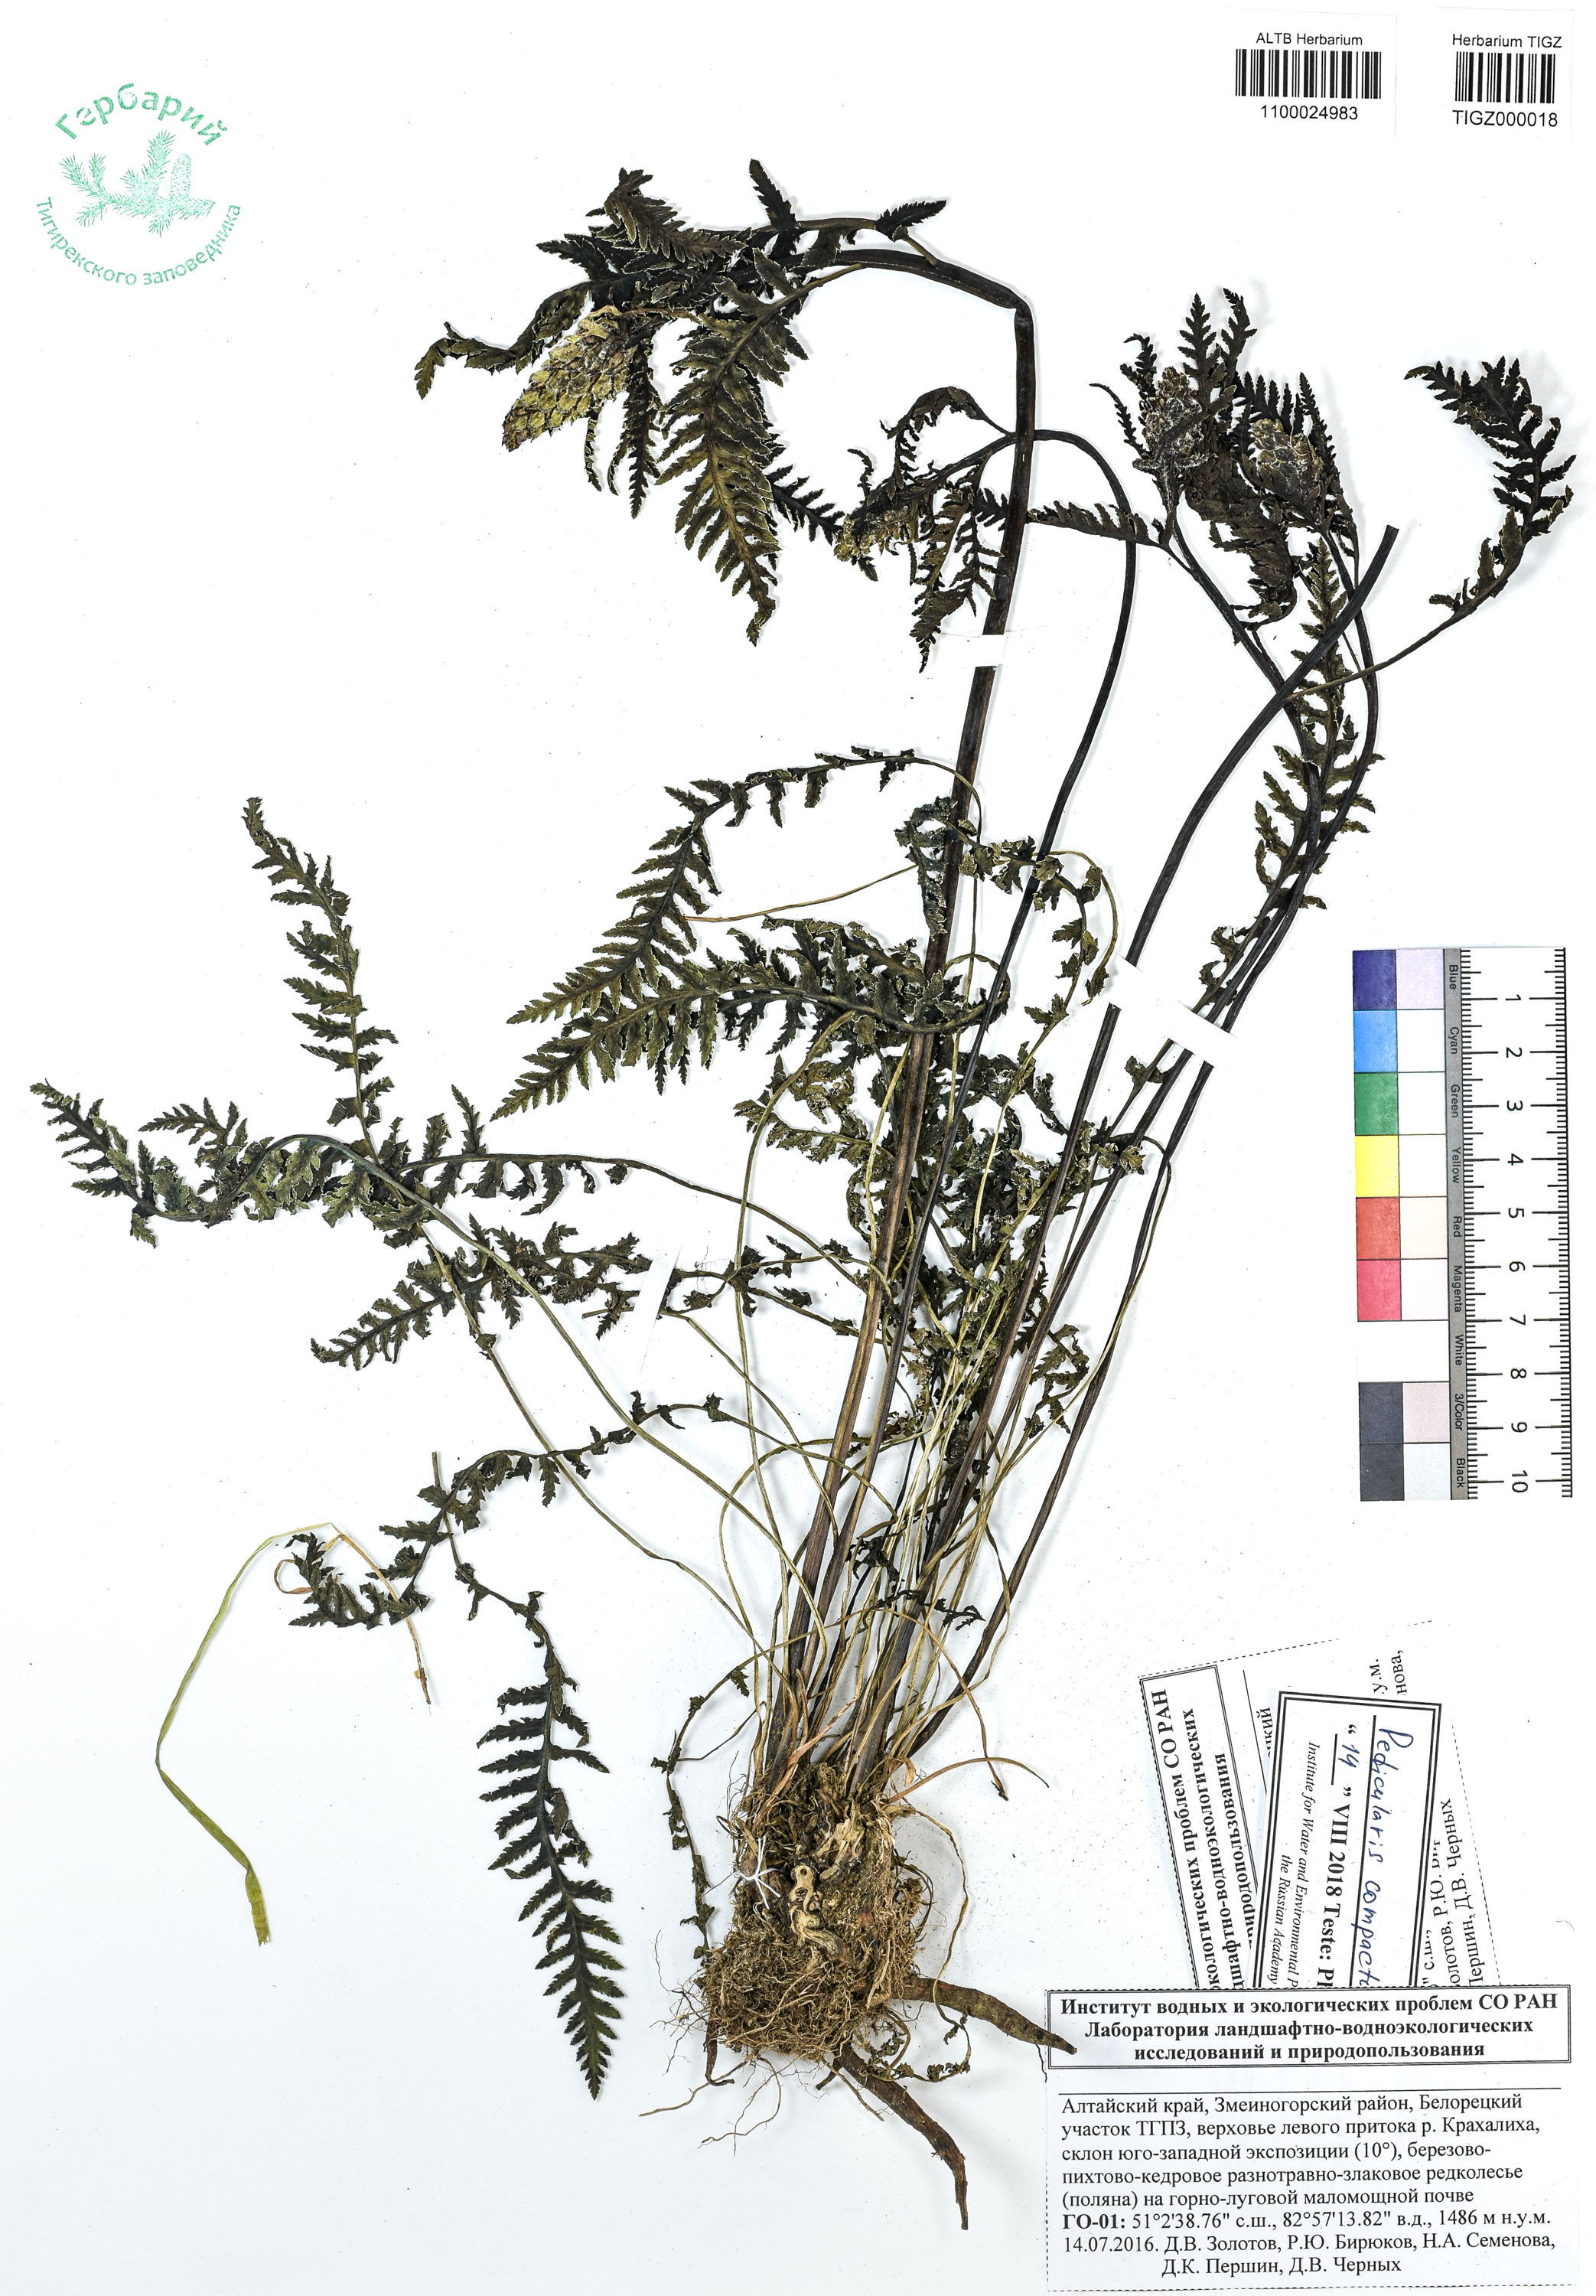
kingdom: Plantae
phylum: Tracheophyta
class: Magnoliopsida
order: Lamiales
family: Orobanchaceae
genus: Pedicularis
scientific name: Pedicularis compacta
